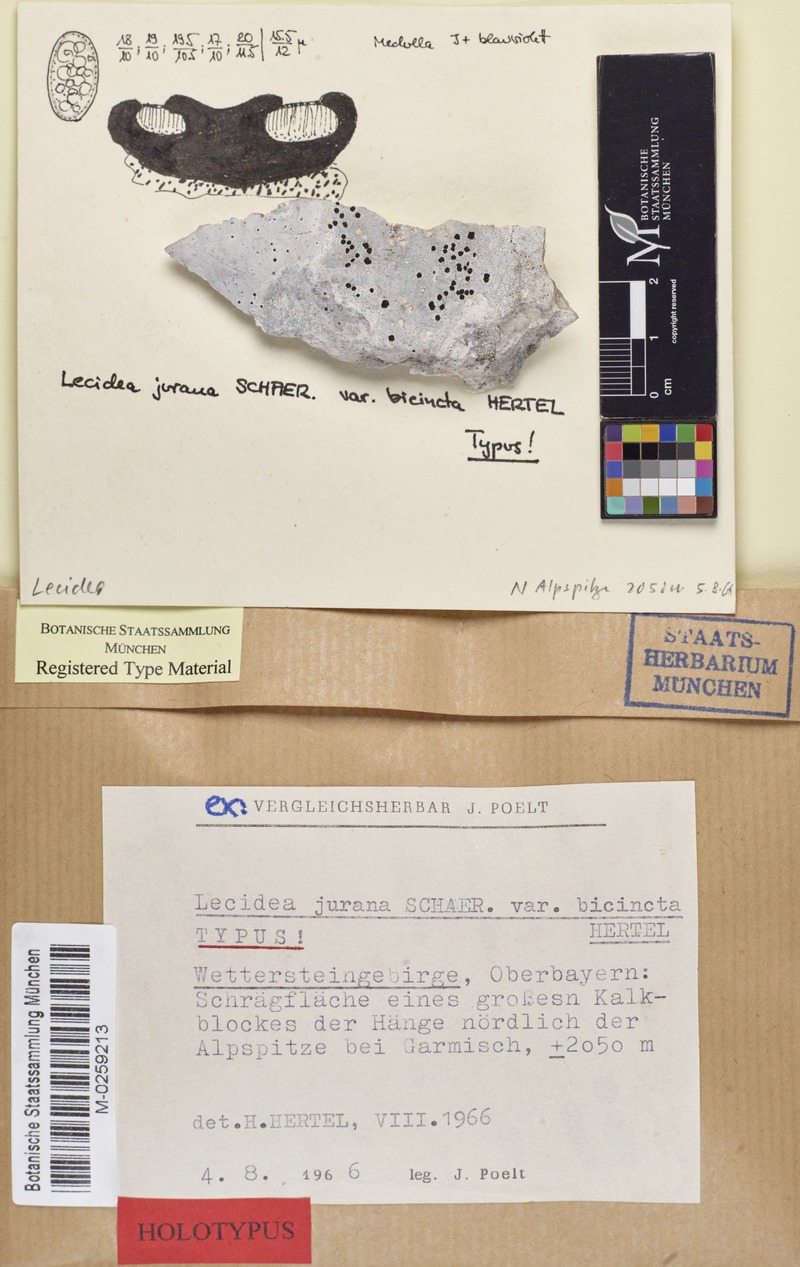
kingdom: Fungi
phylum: Ascomycota
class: Lecanoromycetes
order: Lecideales
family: Lecideaceae
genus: Farnoldia
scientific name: Farnoldia jurana
